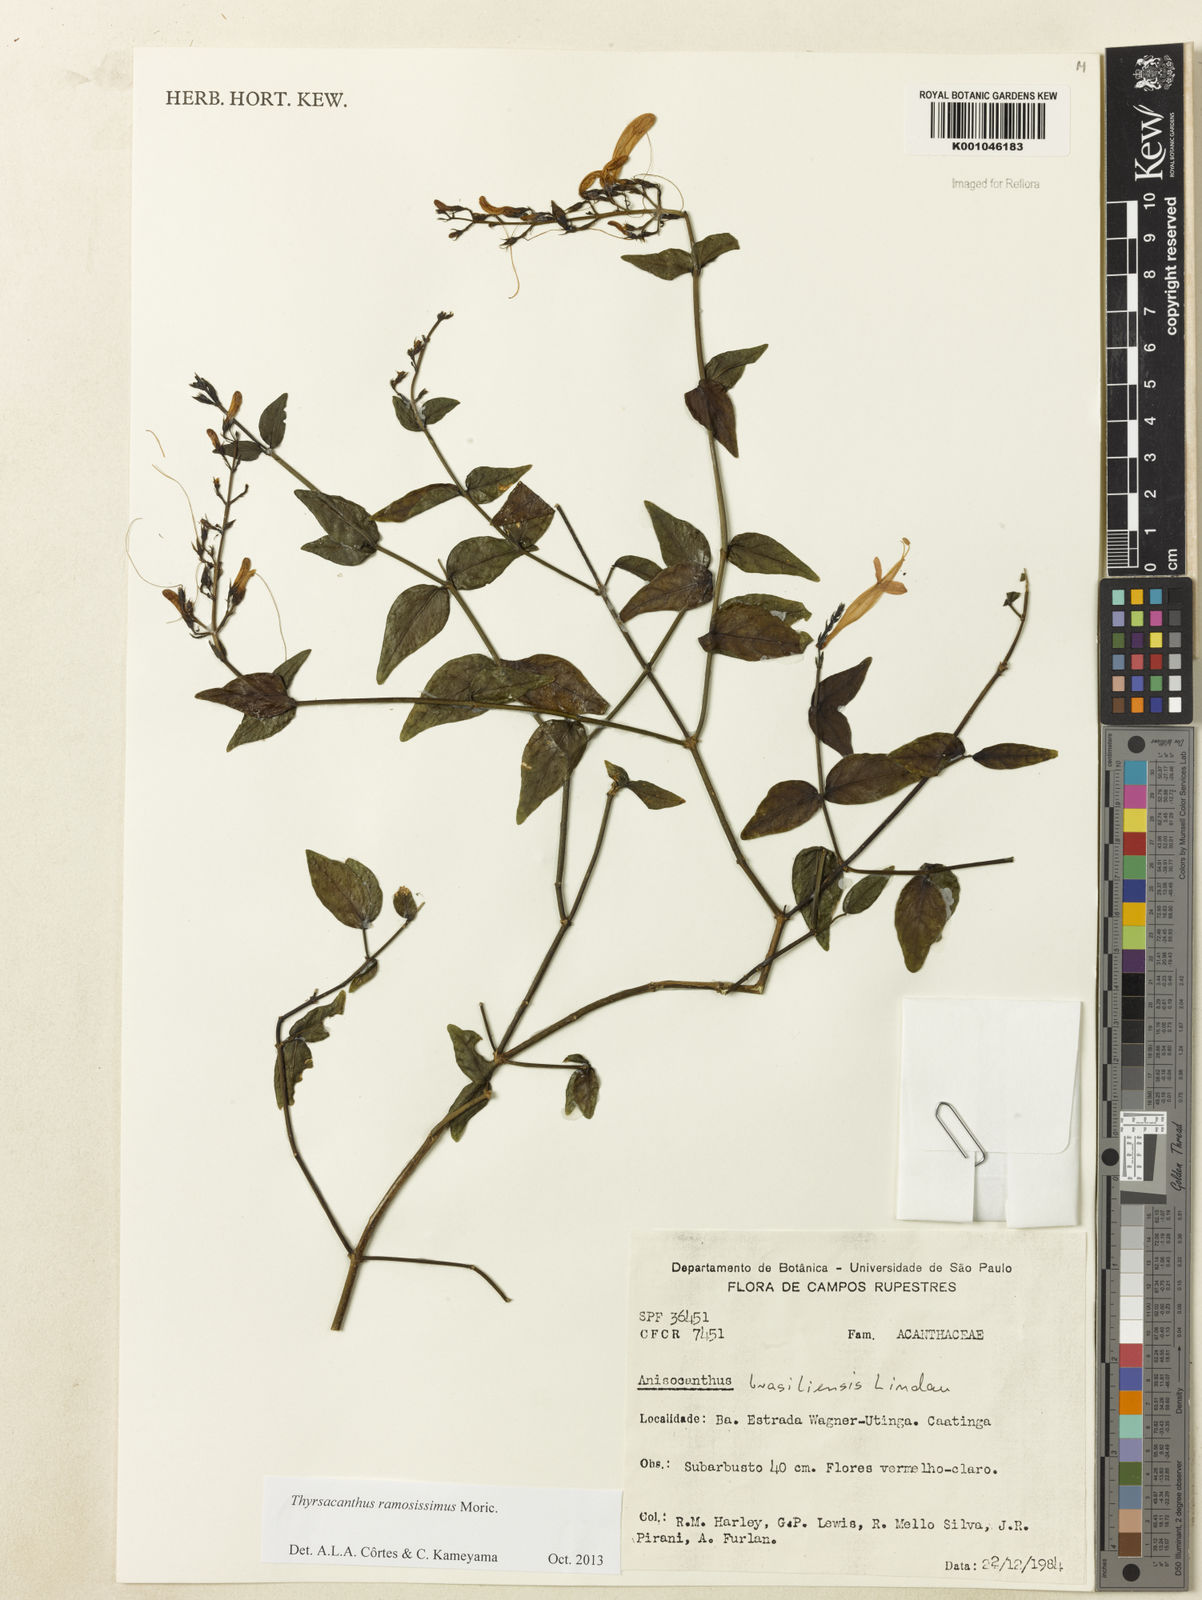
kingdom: Plantae
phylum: Tracheophyta
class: Magnoliopsida
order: Lamiales
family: Acanthaceae
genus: Thyrsacanthus
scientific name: Thyrsacanthus ramosissimus
